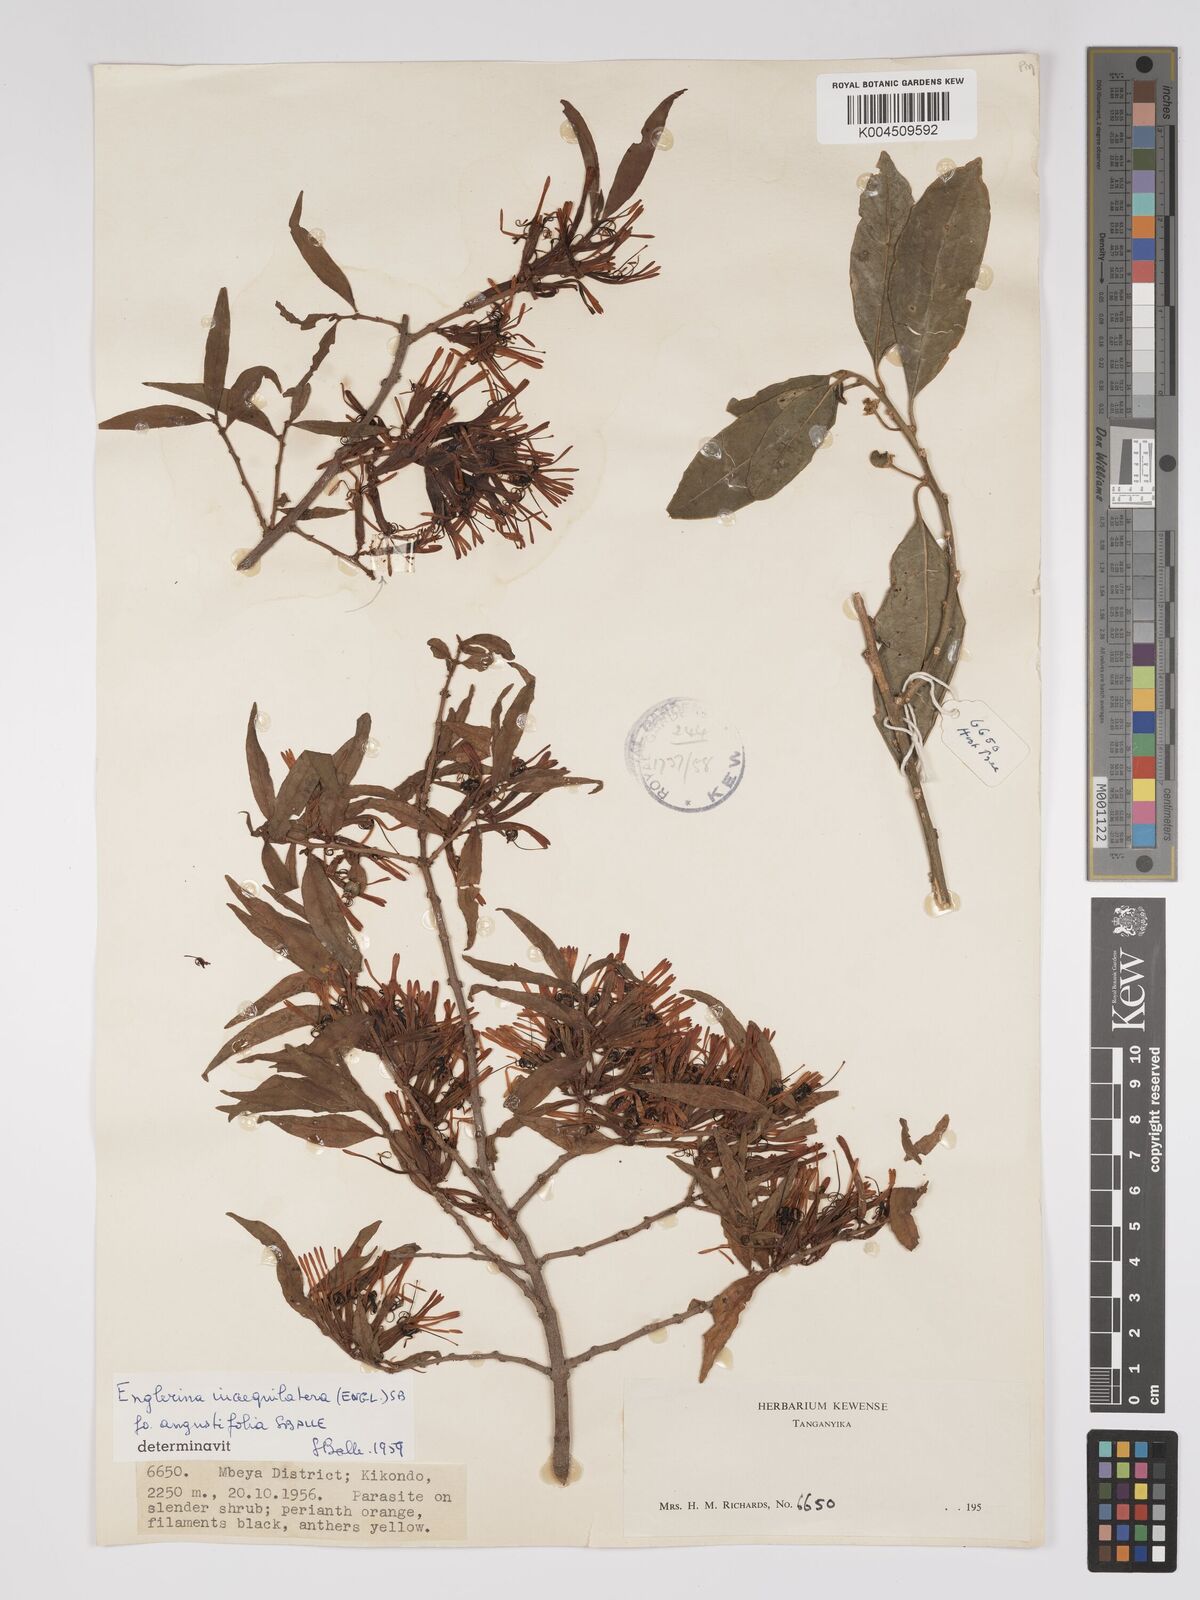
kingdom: Plantae
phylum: Tracheophyta
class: Magnoliopsida
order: Santalales
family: Loranthaceae
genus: Englerina
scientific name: Englerina inaequilatera
